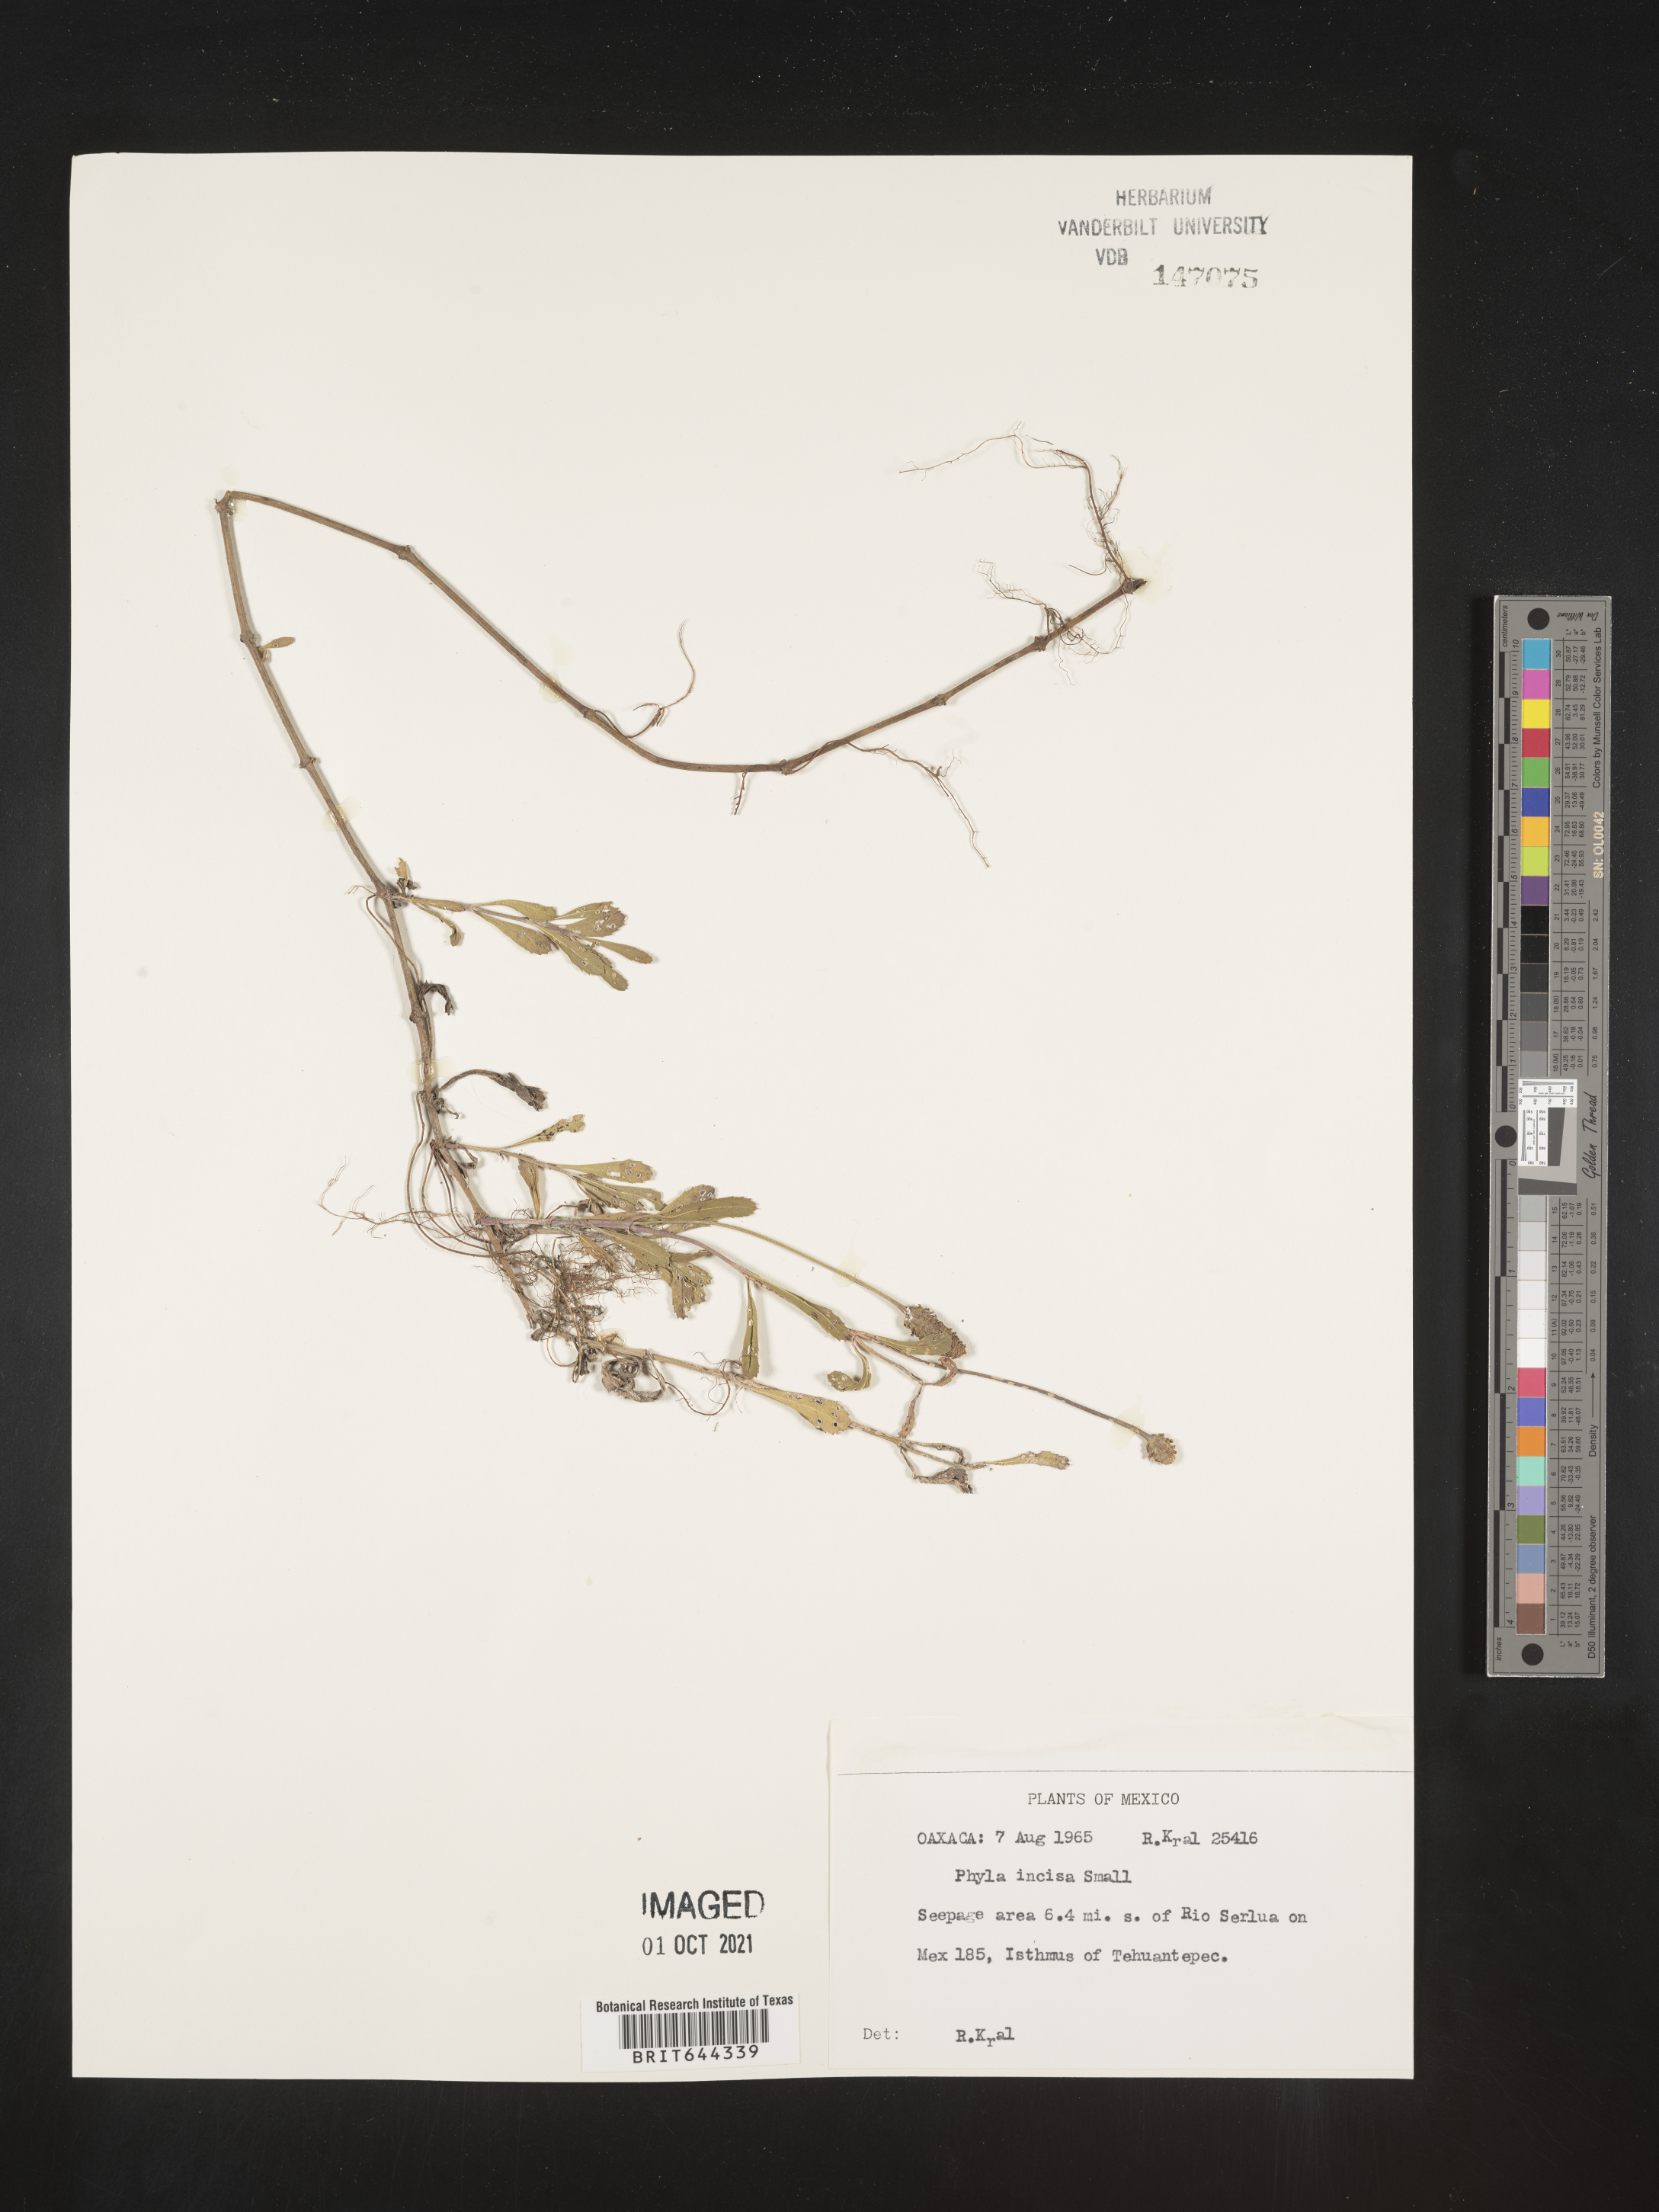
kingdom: Plantae
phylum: Tracheophyta
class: Magnoliopsida
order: Lamiales
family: Verbenaceae
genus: Phyla
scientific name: Phyla
